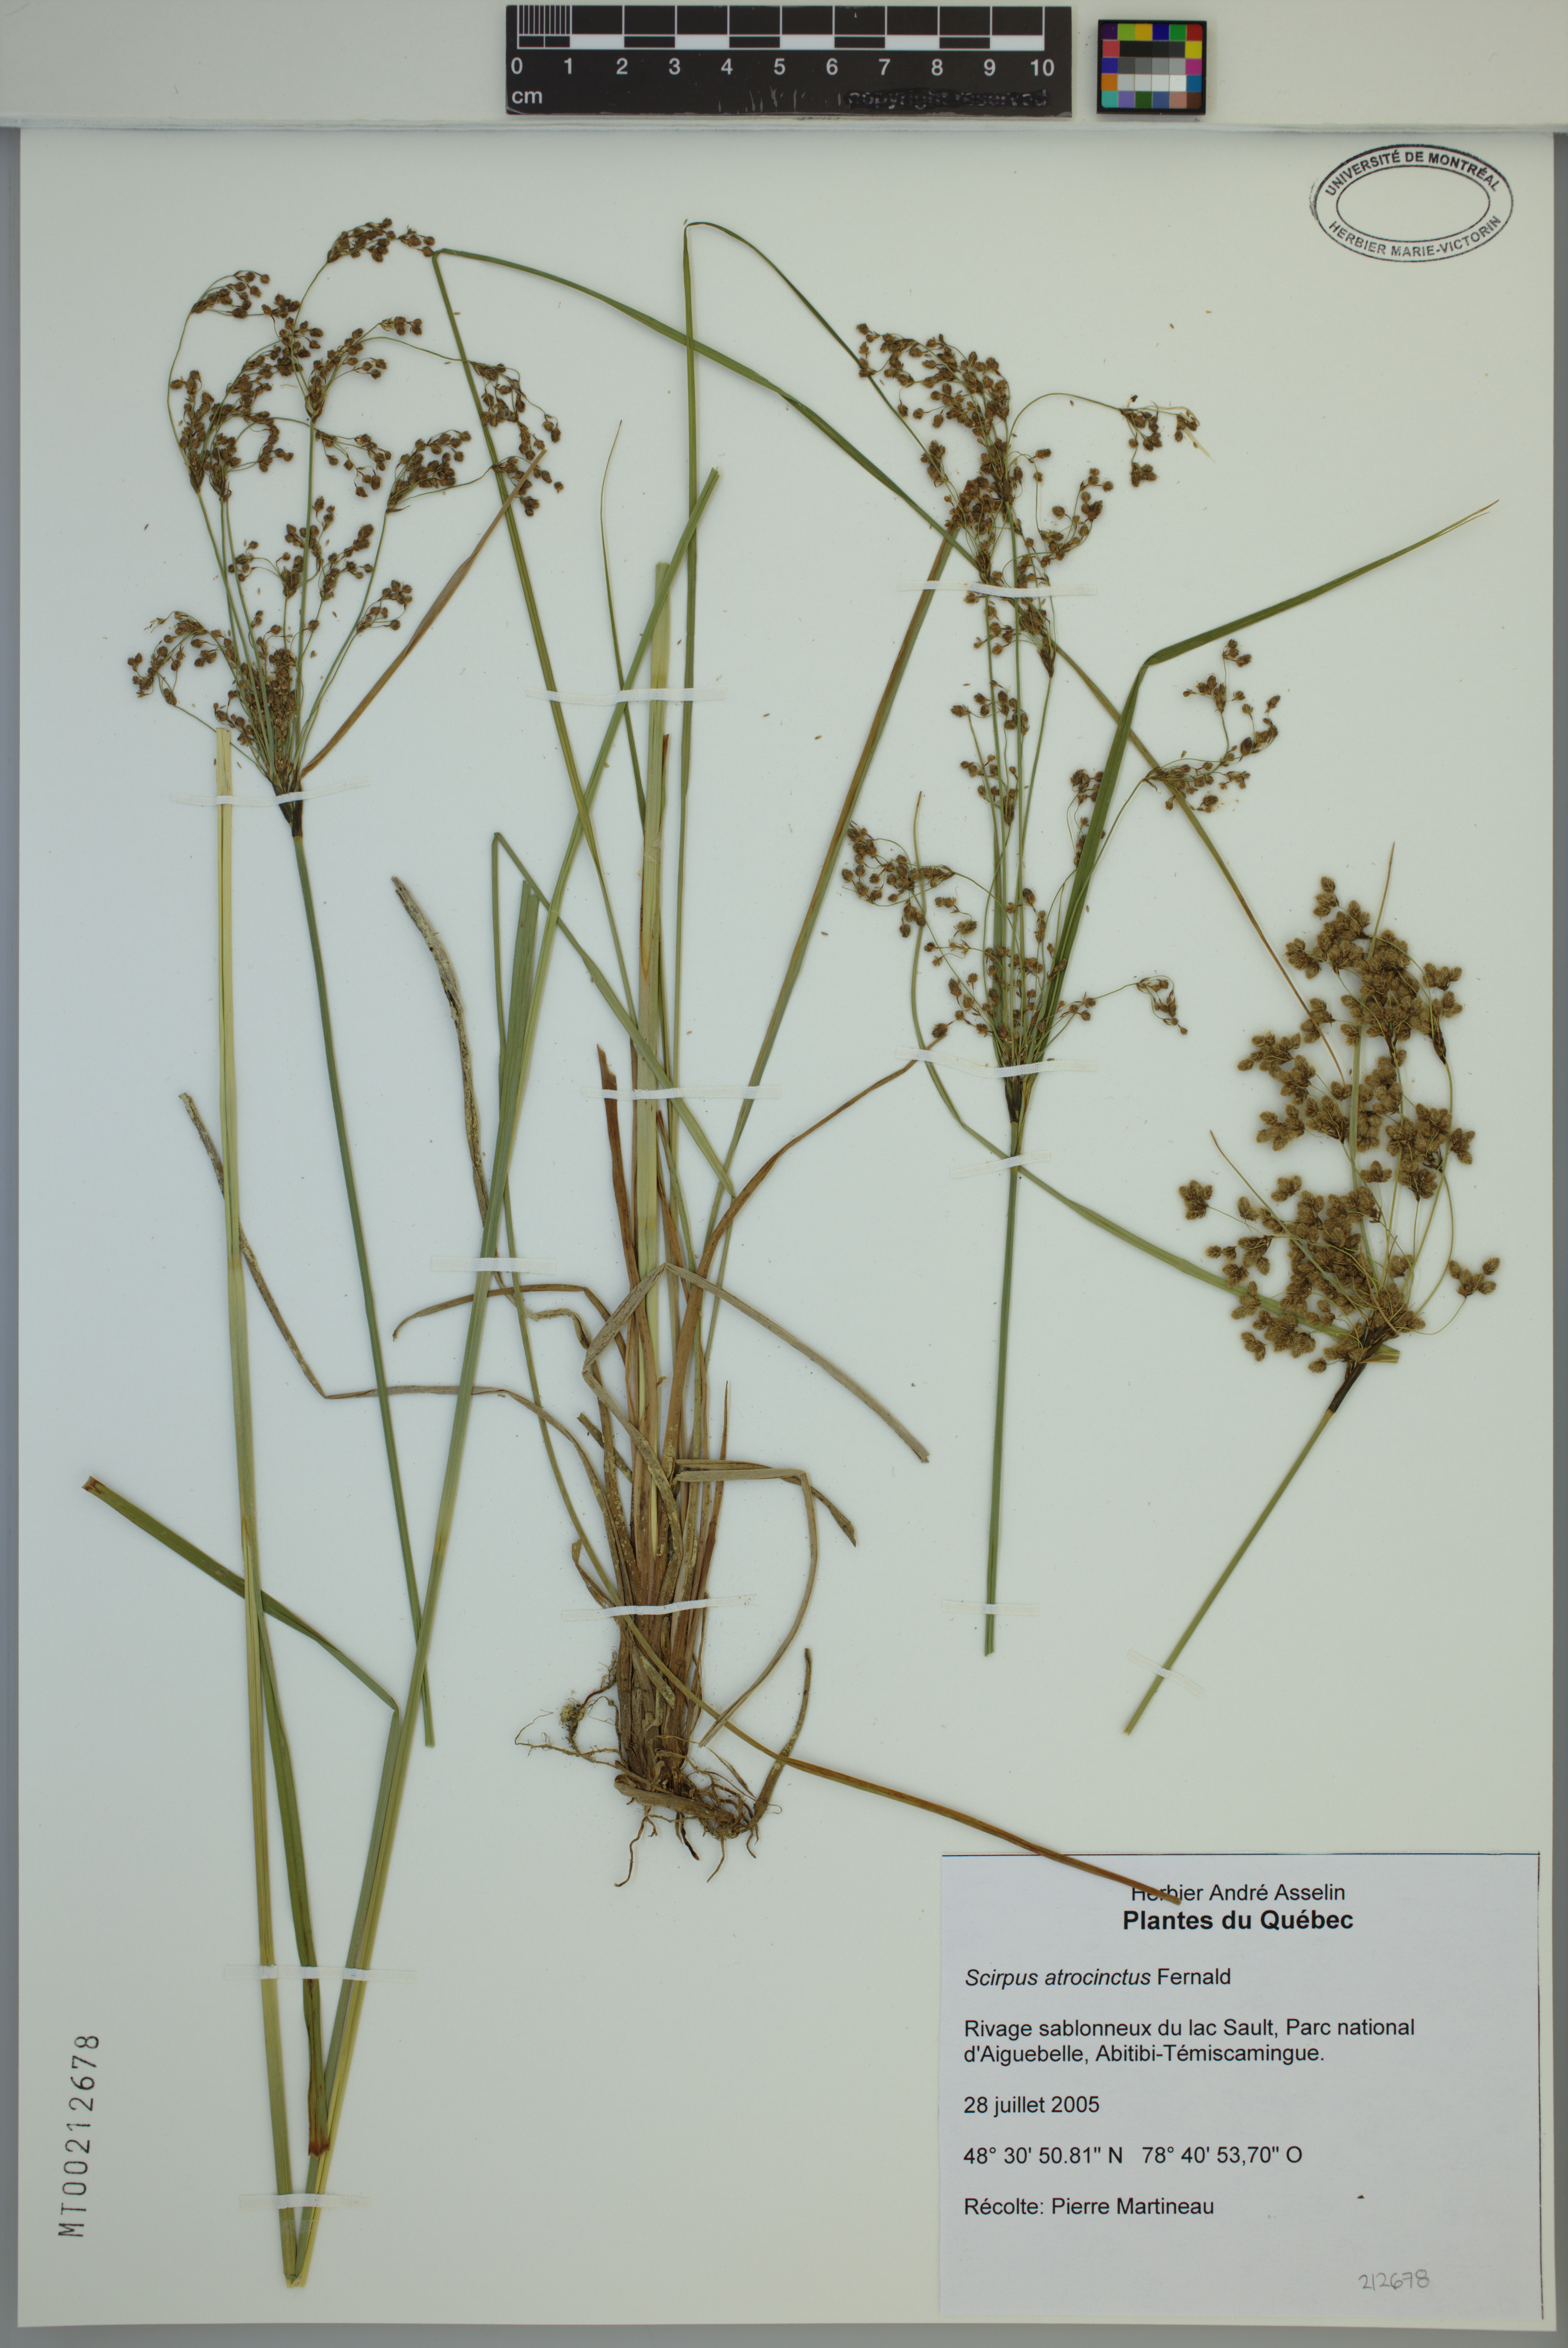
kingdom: Plantae
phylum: Tracheophyta
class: Liliopsida
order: Poales
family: Cyperaceae
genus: Scirpus
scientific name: Scirpus atrocinctus
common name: Black-girdled bulrush
